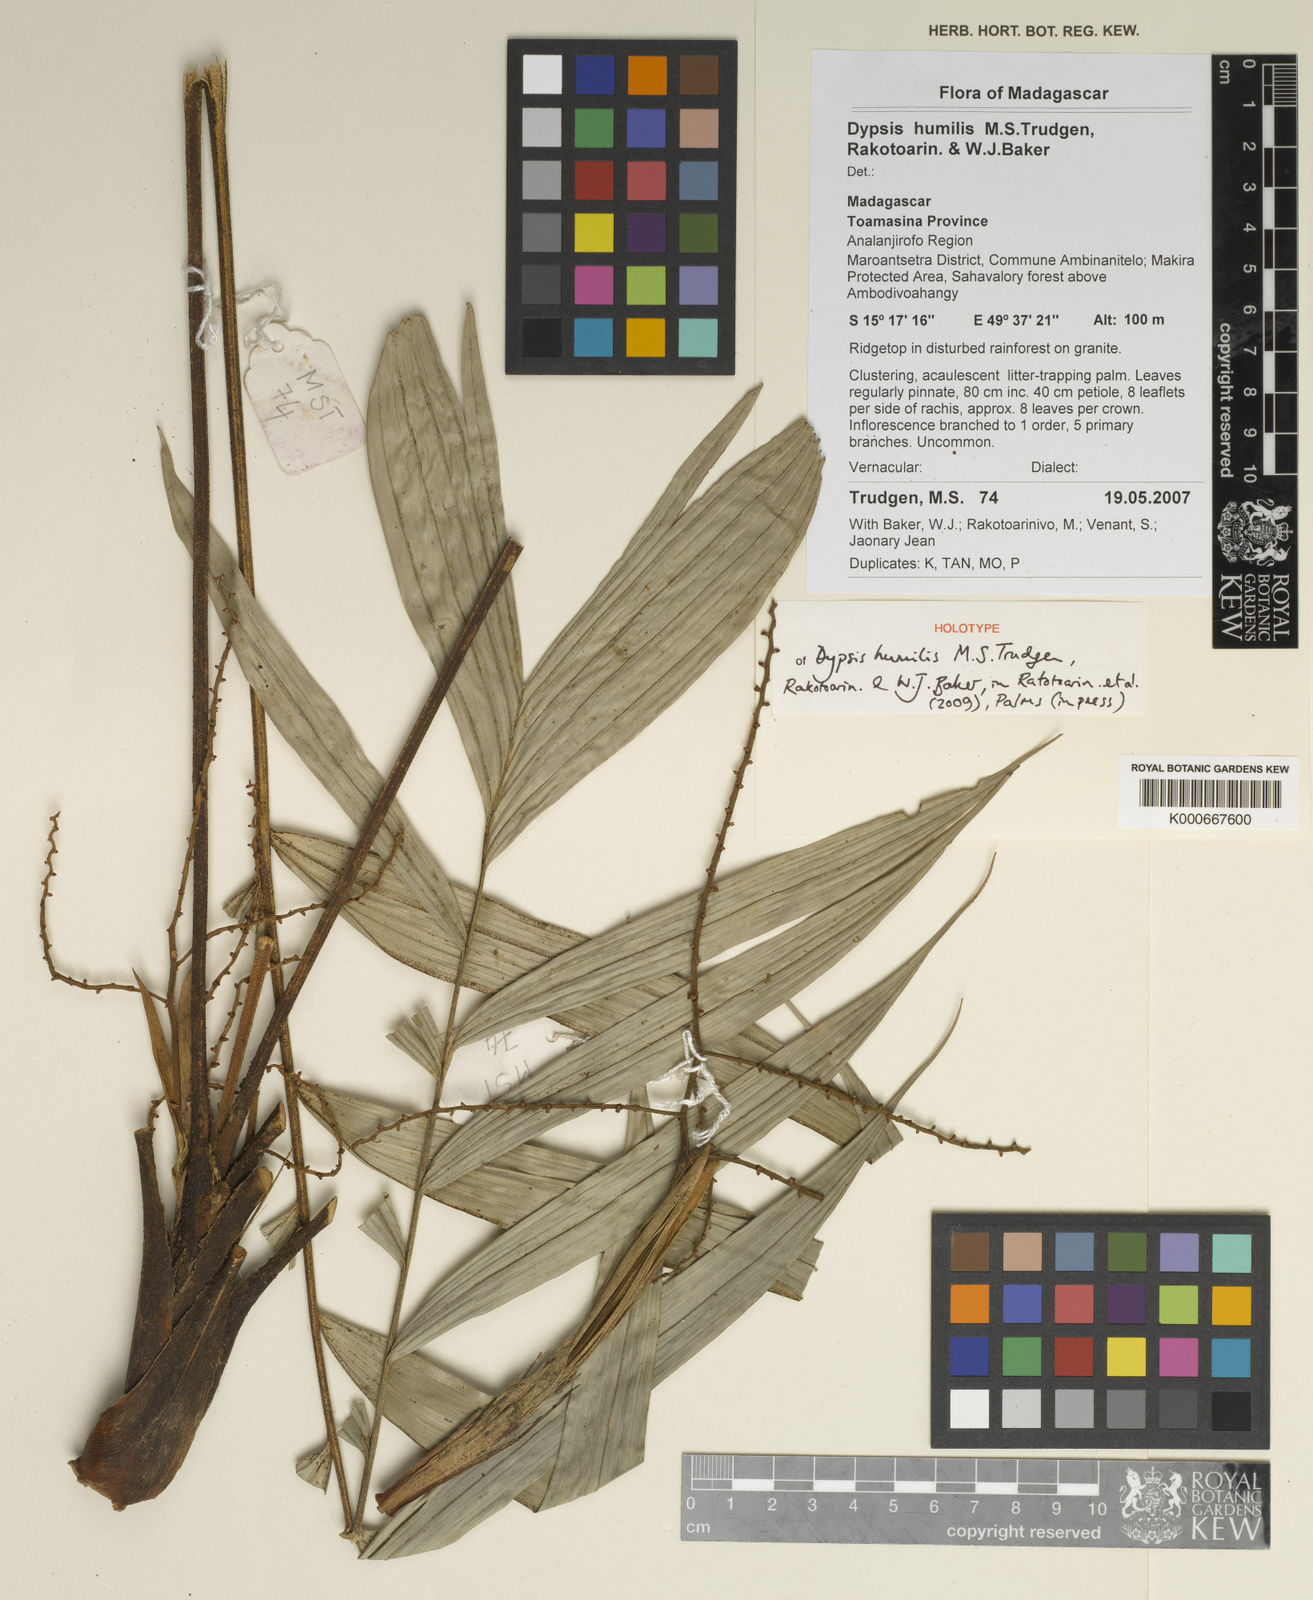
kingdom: Plantae
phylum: Tracheophyta
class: Liliopsida
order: Arecales
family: Arecaceae
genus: Dypsis
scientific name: Dypsis humilis
